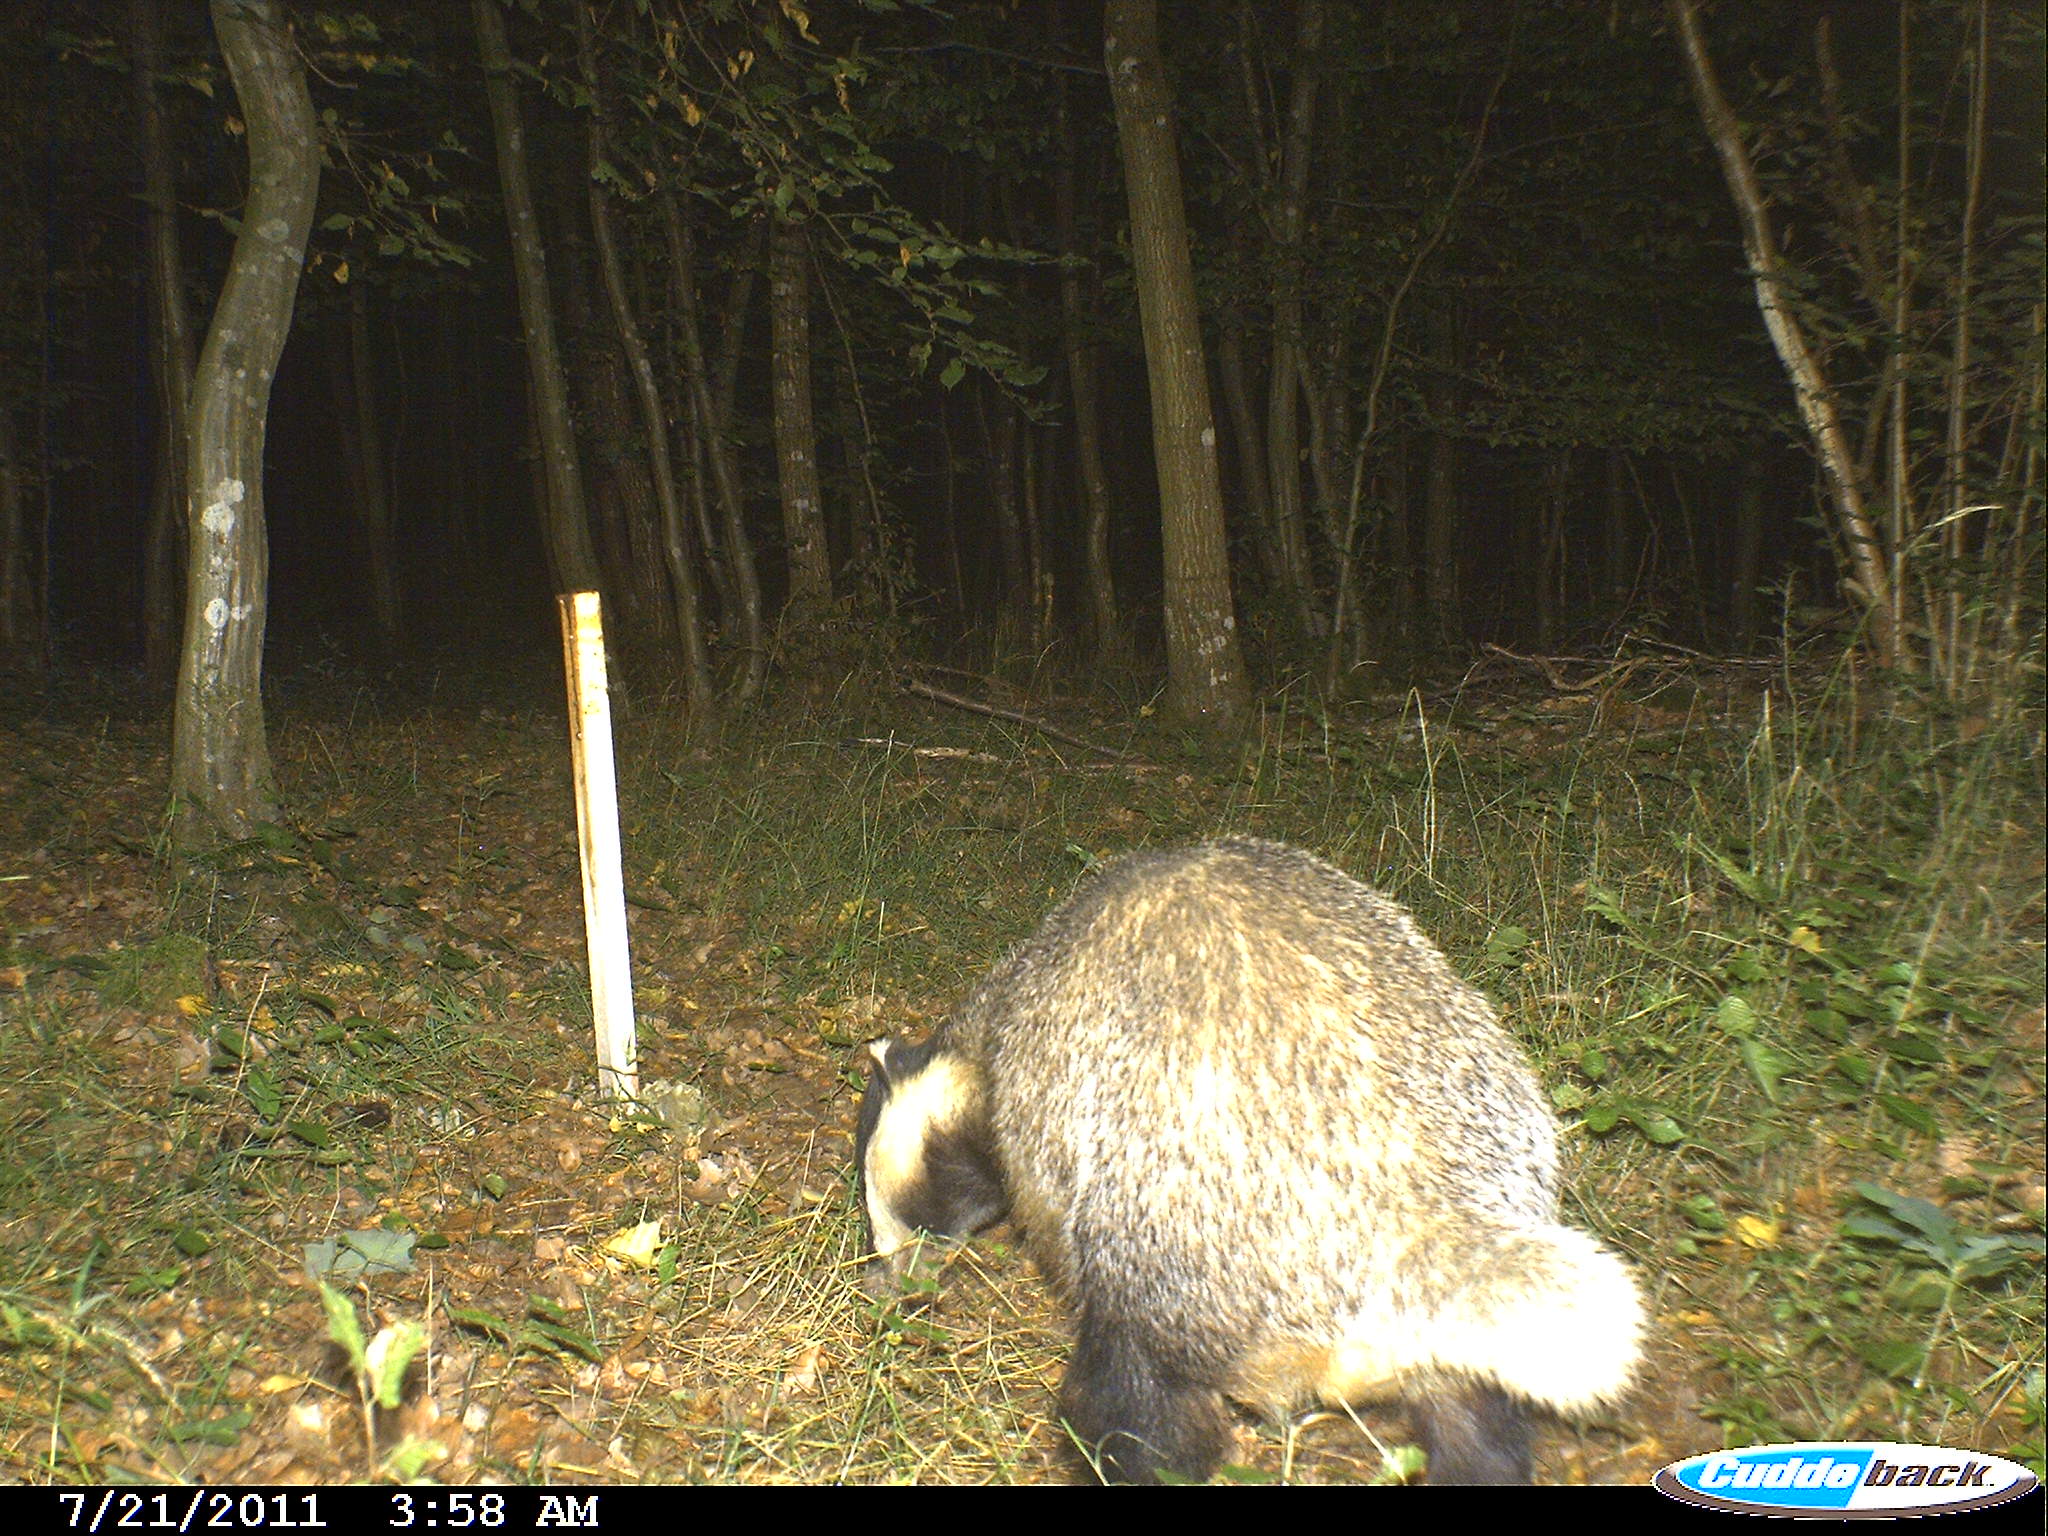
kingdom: Animalia
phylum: Chordata
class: Mammalia
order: Carnivora
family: Mustelidae
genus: Meles
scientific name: Meles meles
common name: Eurasian badger
